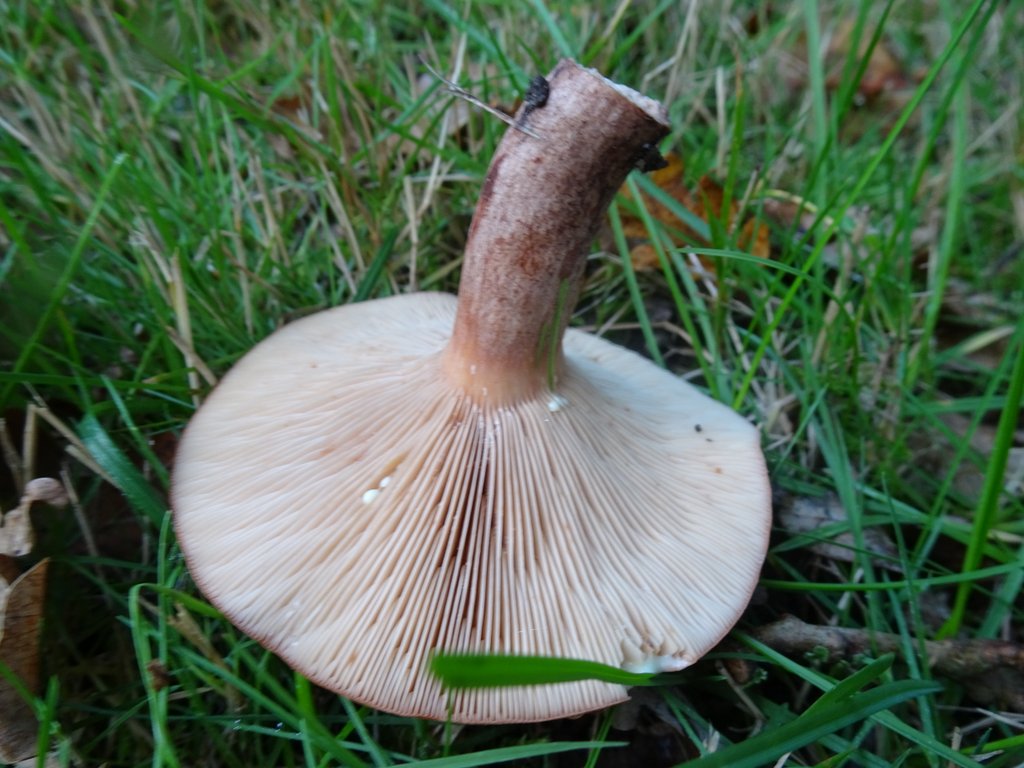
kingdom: Fungi
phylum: Basidiomycota
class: Agaricomycetes
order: Russulales
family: Russulaceae
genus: Lactarius
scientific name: Lactarius quietus
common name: ege-mælkehat
